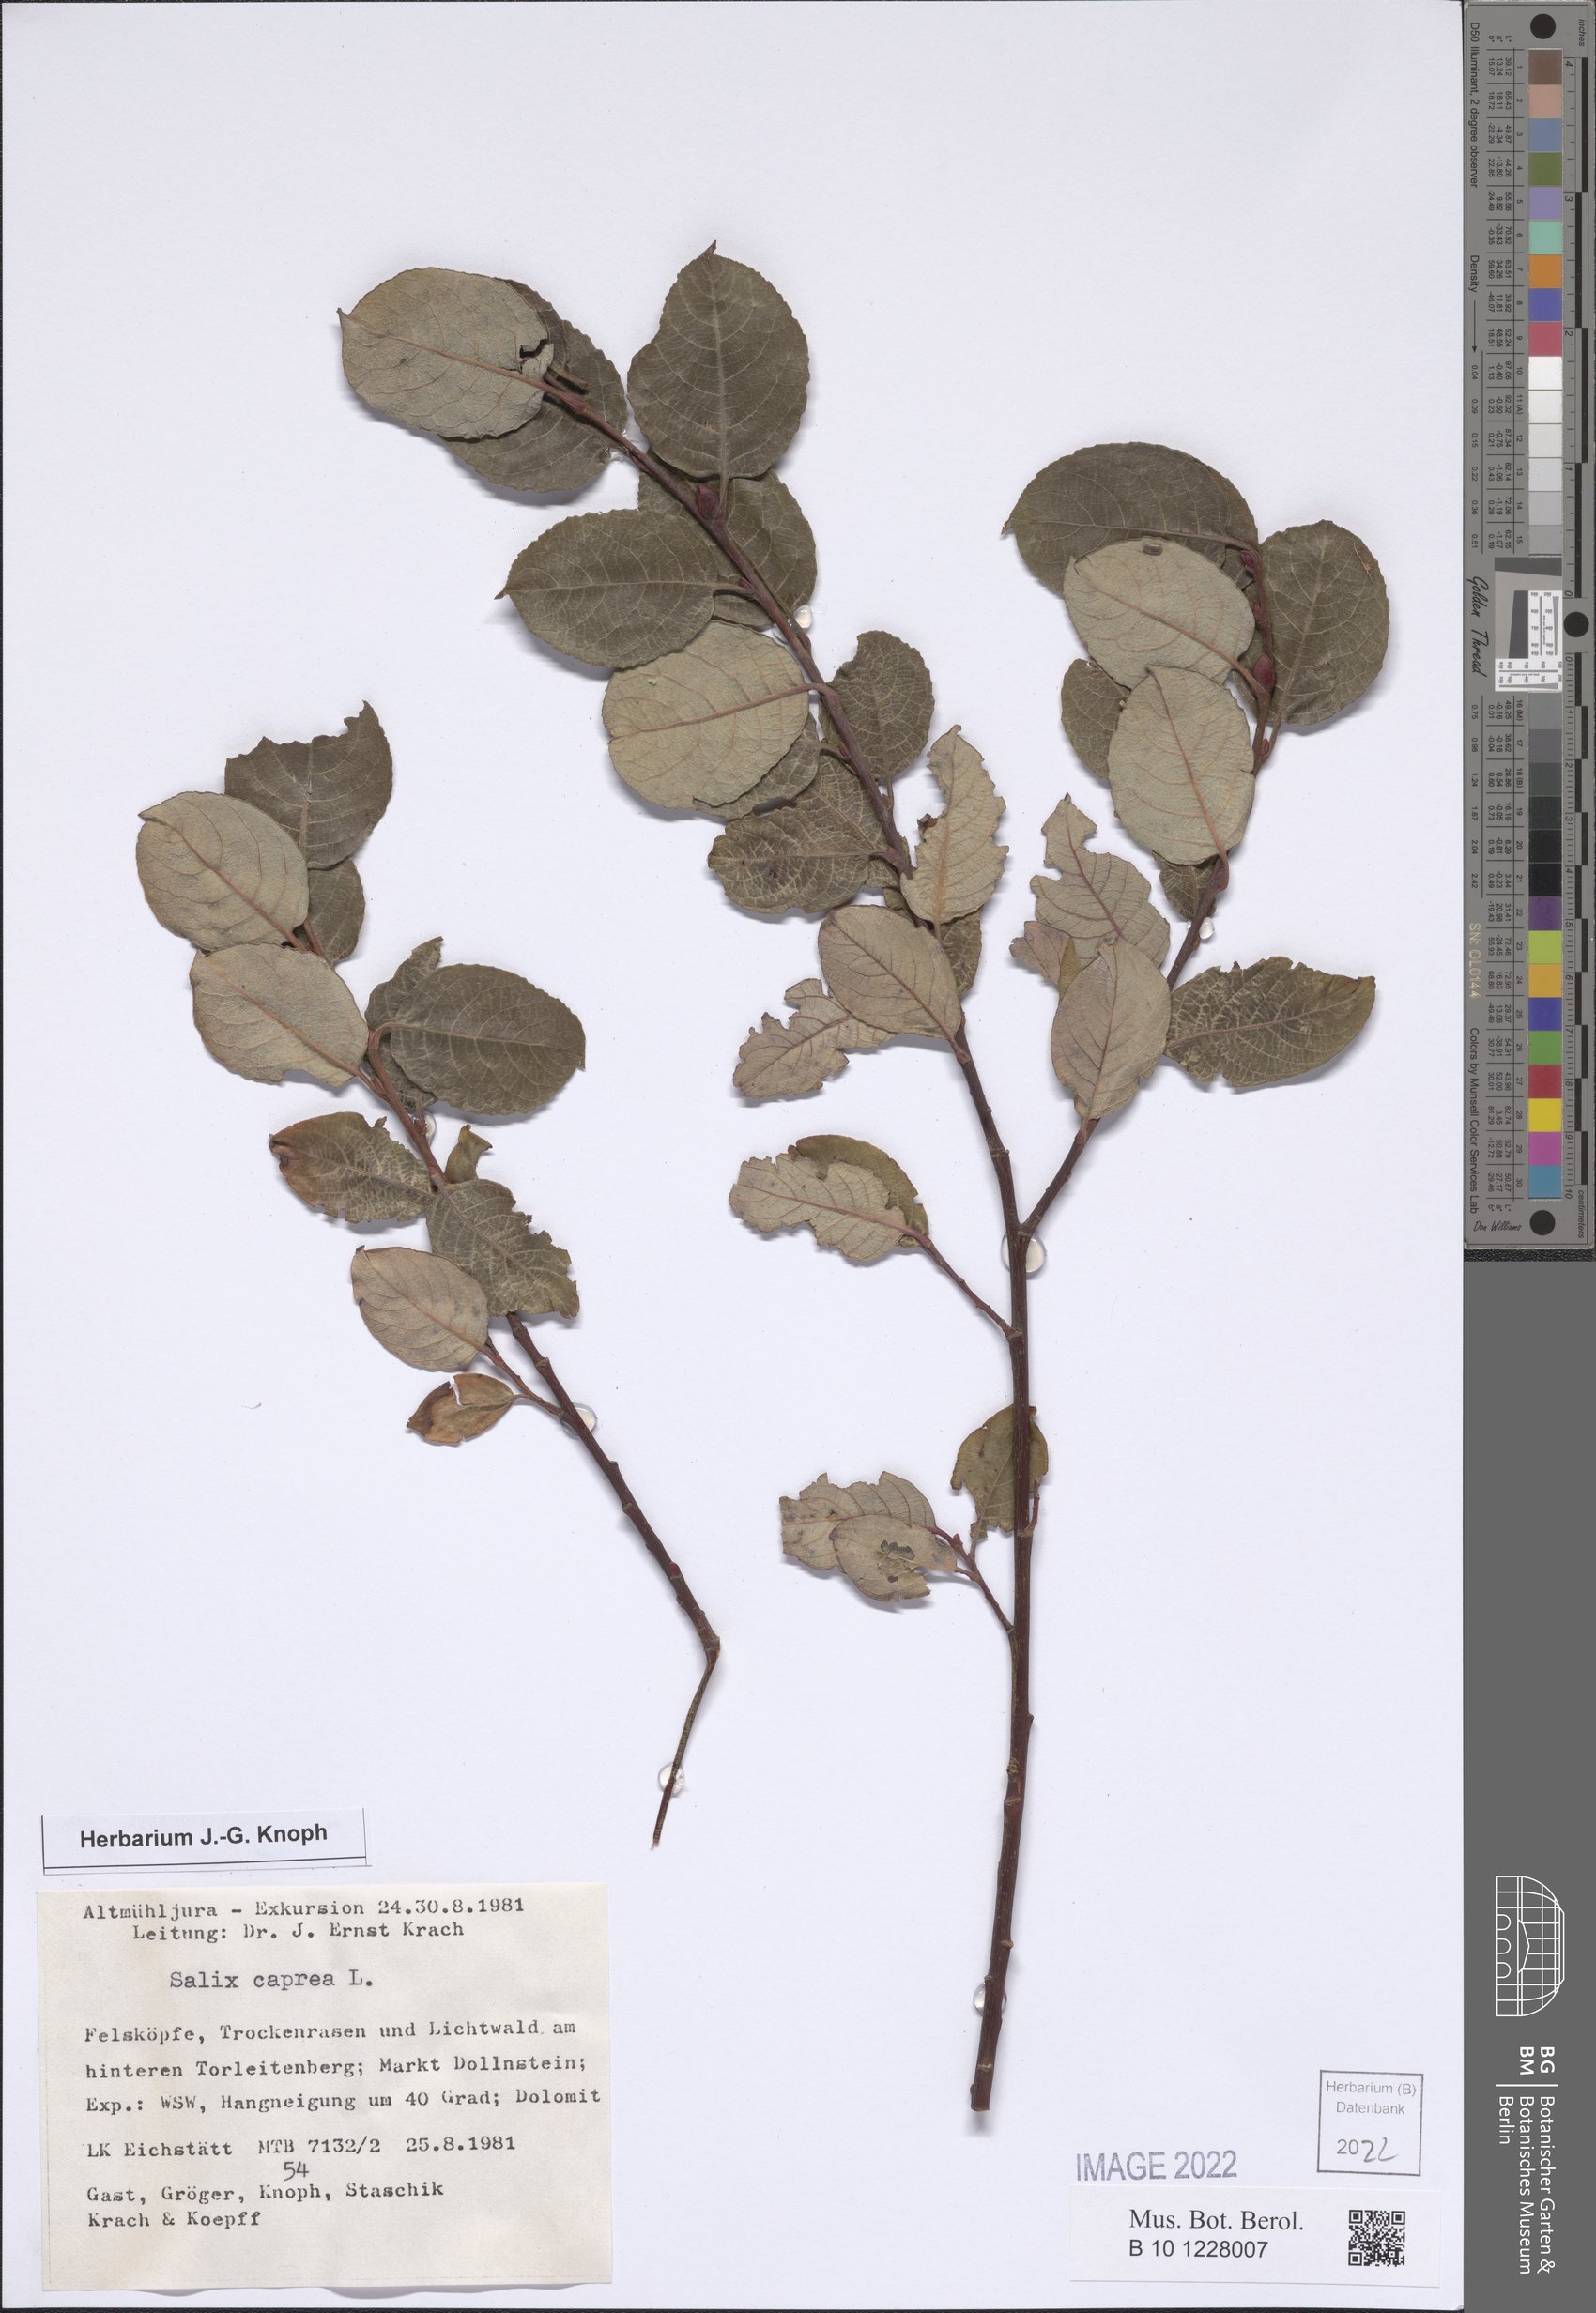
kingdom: Plantae
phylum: Tracheophyta
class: Magnoliopsida
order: Malpighiales
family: Salicaceae
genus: Salix
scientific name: Salix caprea
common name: Goat willow
